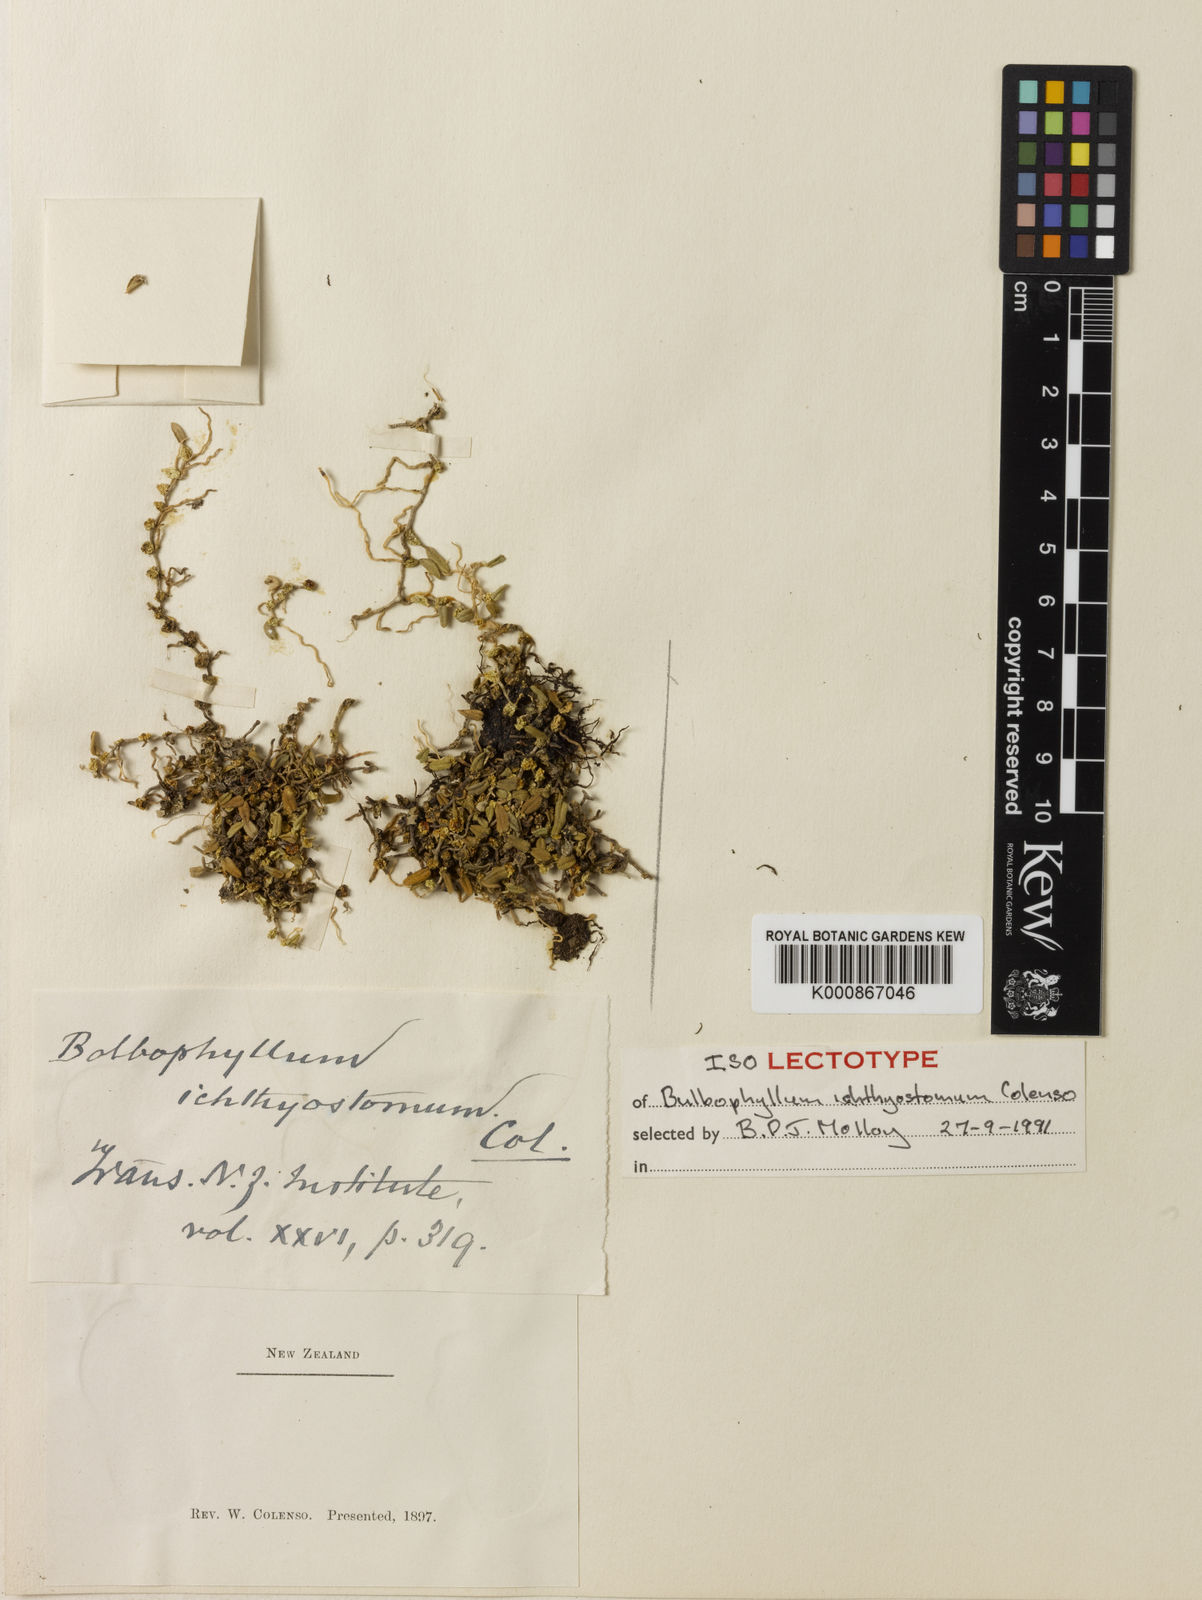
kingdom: Plantae
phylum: Tracheophyta
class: Liliopsida
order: Asparagales
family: Orchidaceae
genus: Bulbophyllum
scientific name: Bulbophyllum pygmaeum
